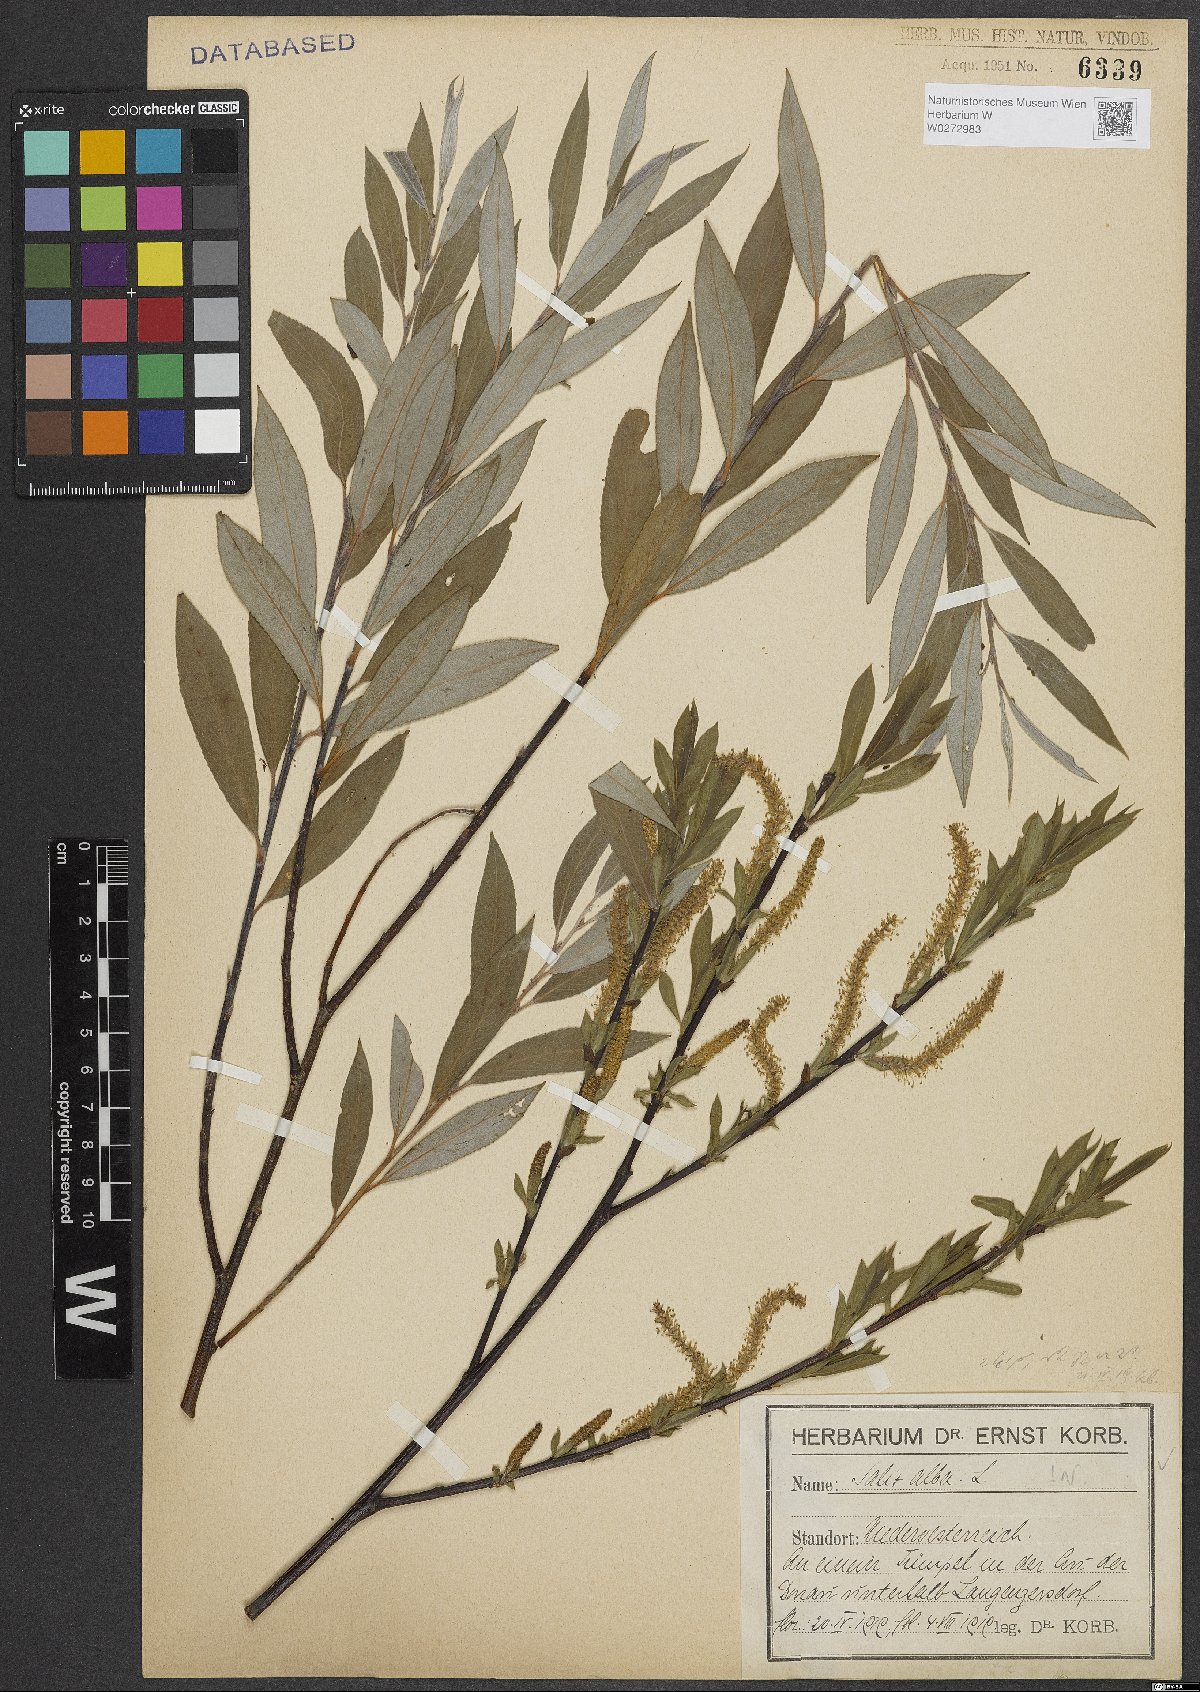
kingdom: Plantae
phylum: Tracheophyta
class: Magnoliopsida
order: Malpighiales
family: Salicaceae
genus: Salix
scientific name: Salix alba
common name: White willow
